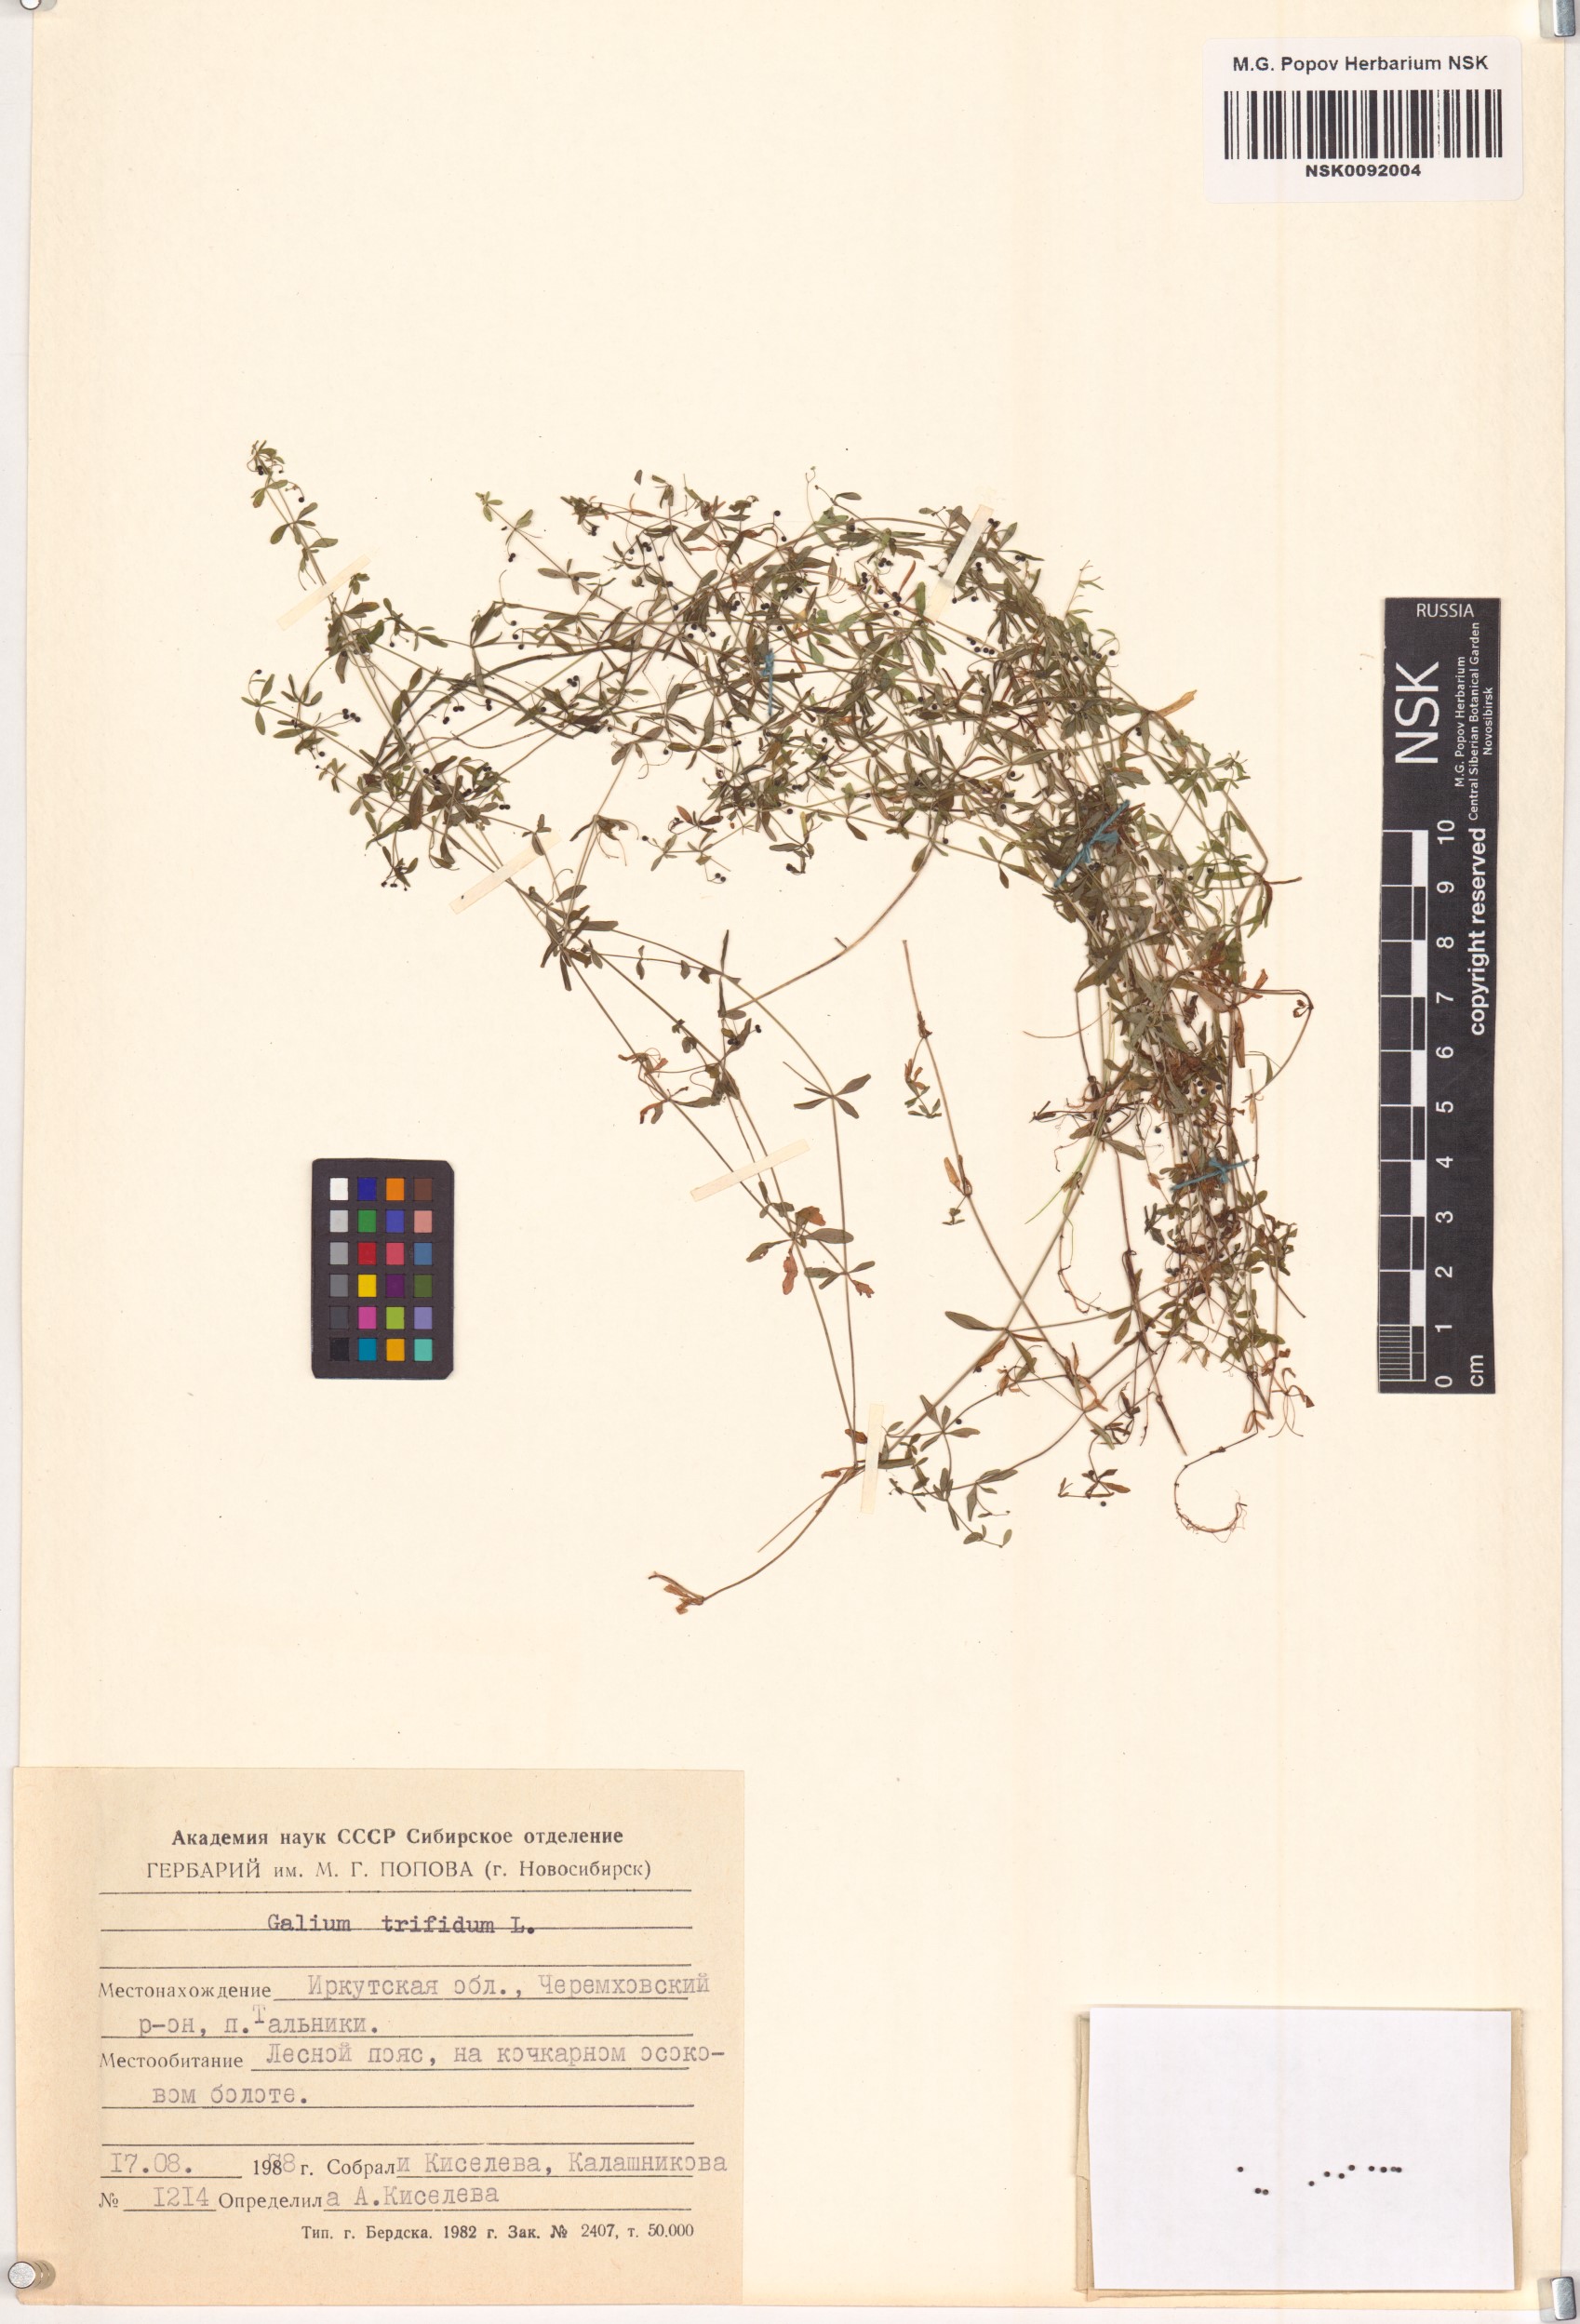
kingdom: Plantae
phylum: Tracheophyta
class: Magnoliopsida
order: Gentianales
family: Rubiaceae
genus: Galium
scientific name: Galium trifidum
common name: Small bedstraw
